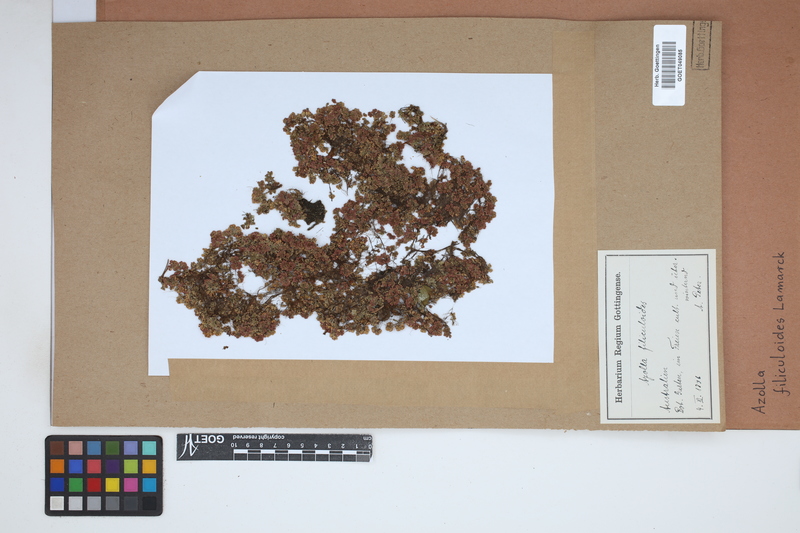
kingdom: Plantae
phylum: Tracheophyta
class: Polypodiopsida
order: Salviniales
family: Salviniaceae
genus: Azolla
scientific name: Azolla filiculoides
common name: Water fern
